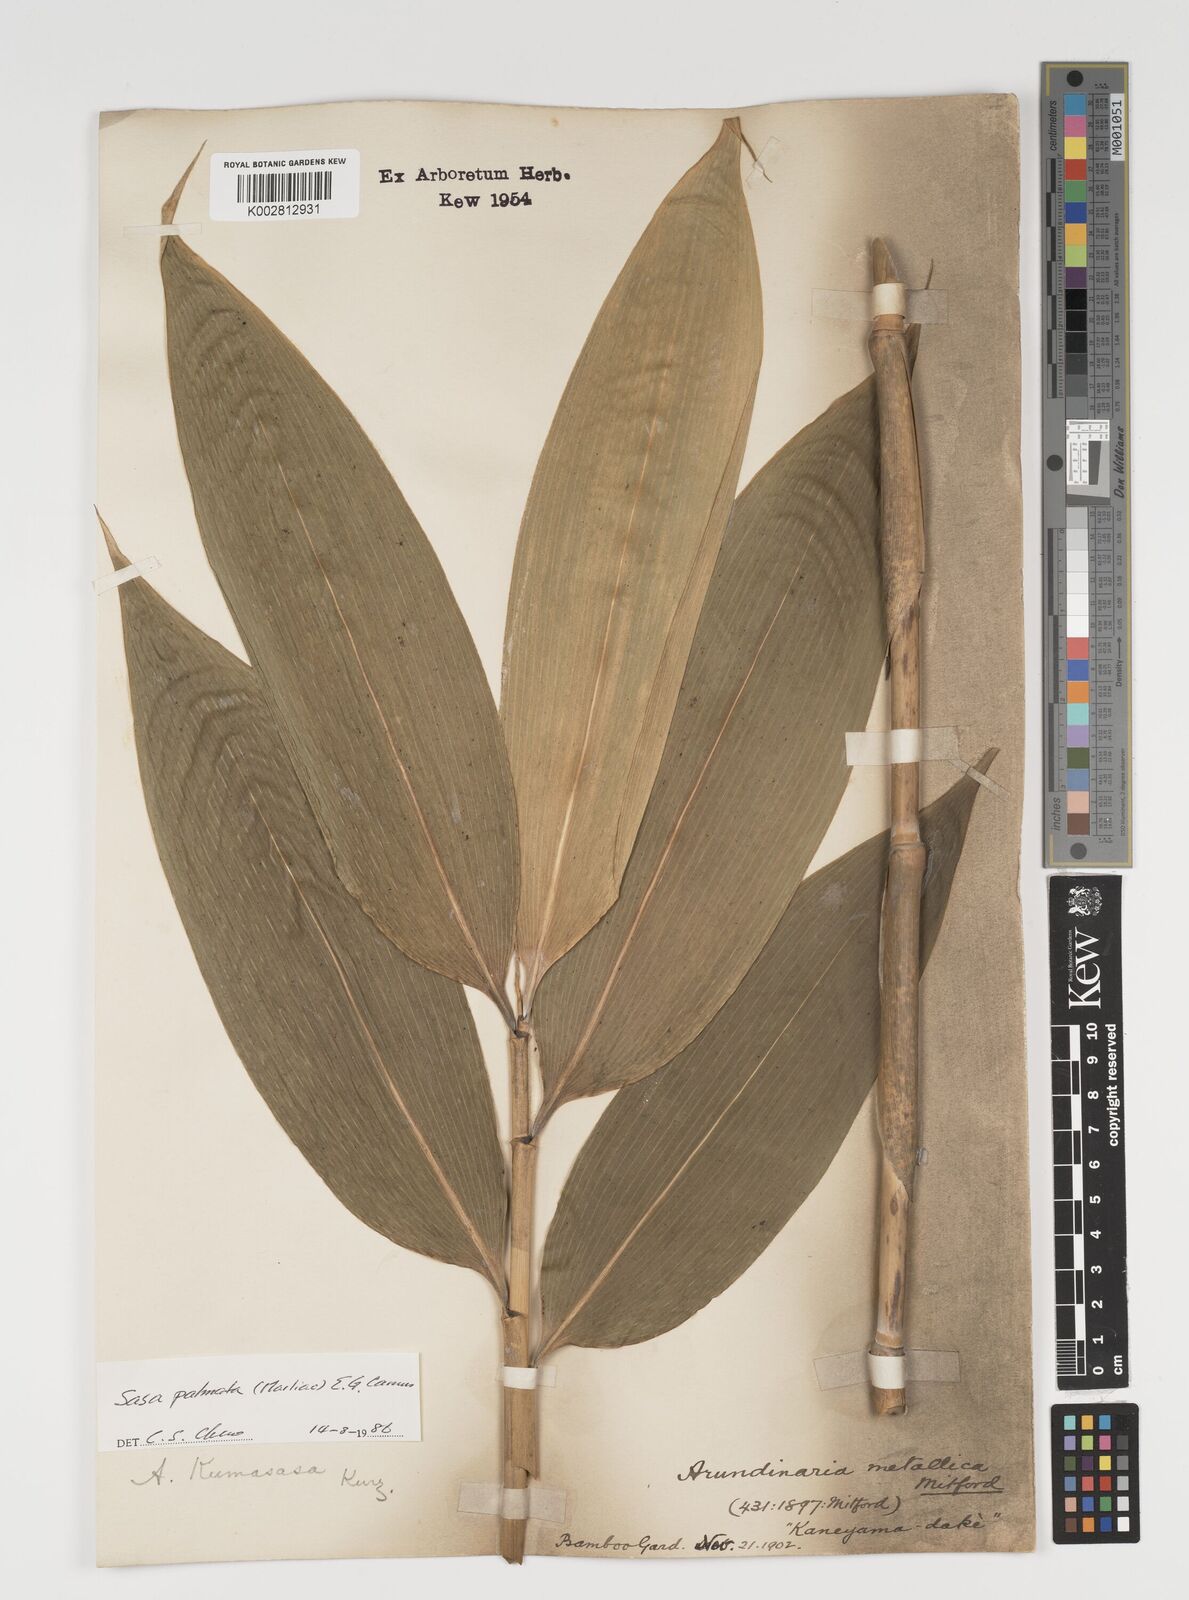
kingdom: Plantae
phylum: Tracheophyta
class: Liliopsida
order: Poales
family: Poaceae
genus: Sasa
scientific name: Sasa palmata
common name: Broad-leaved bamboo
